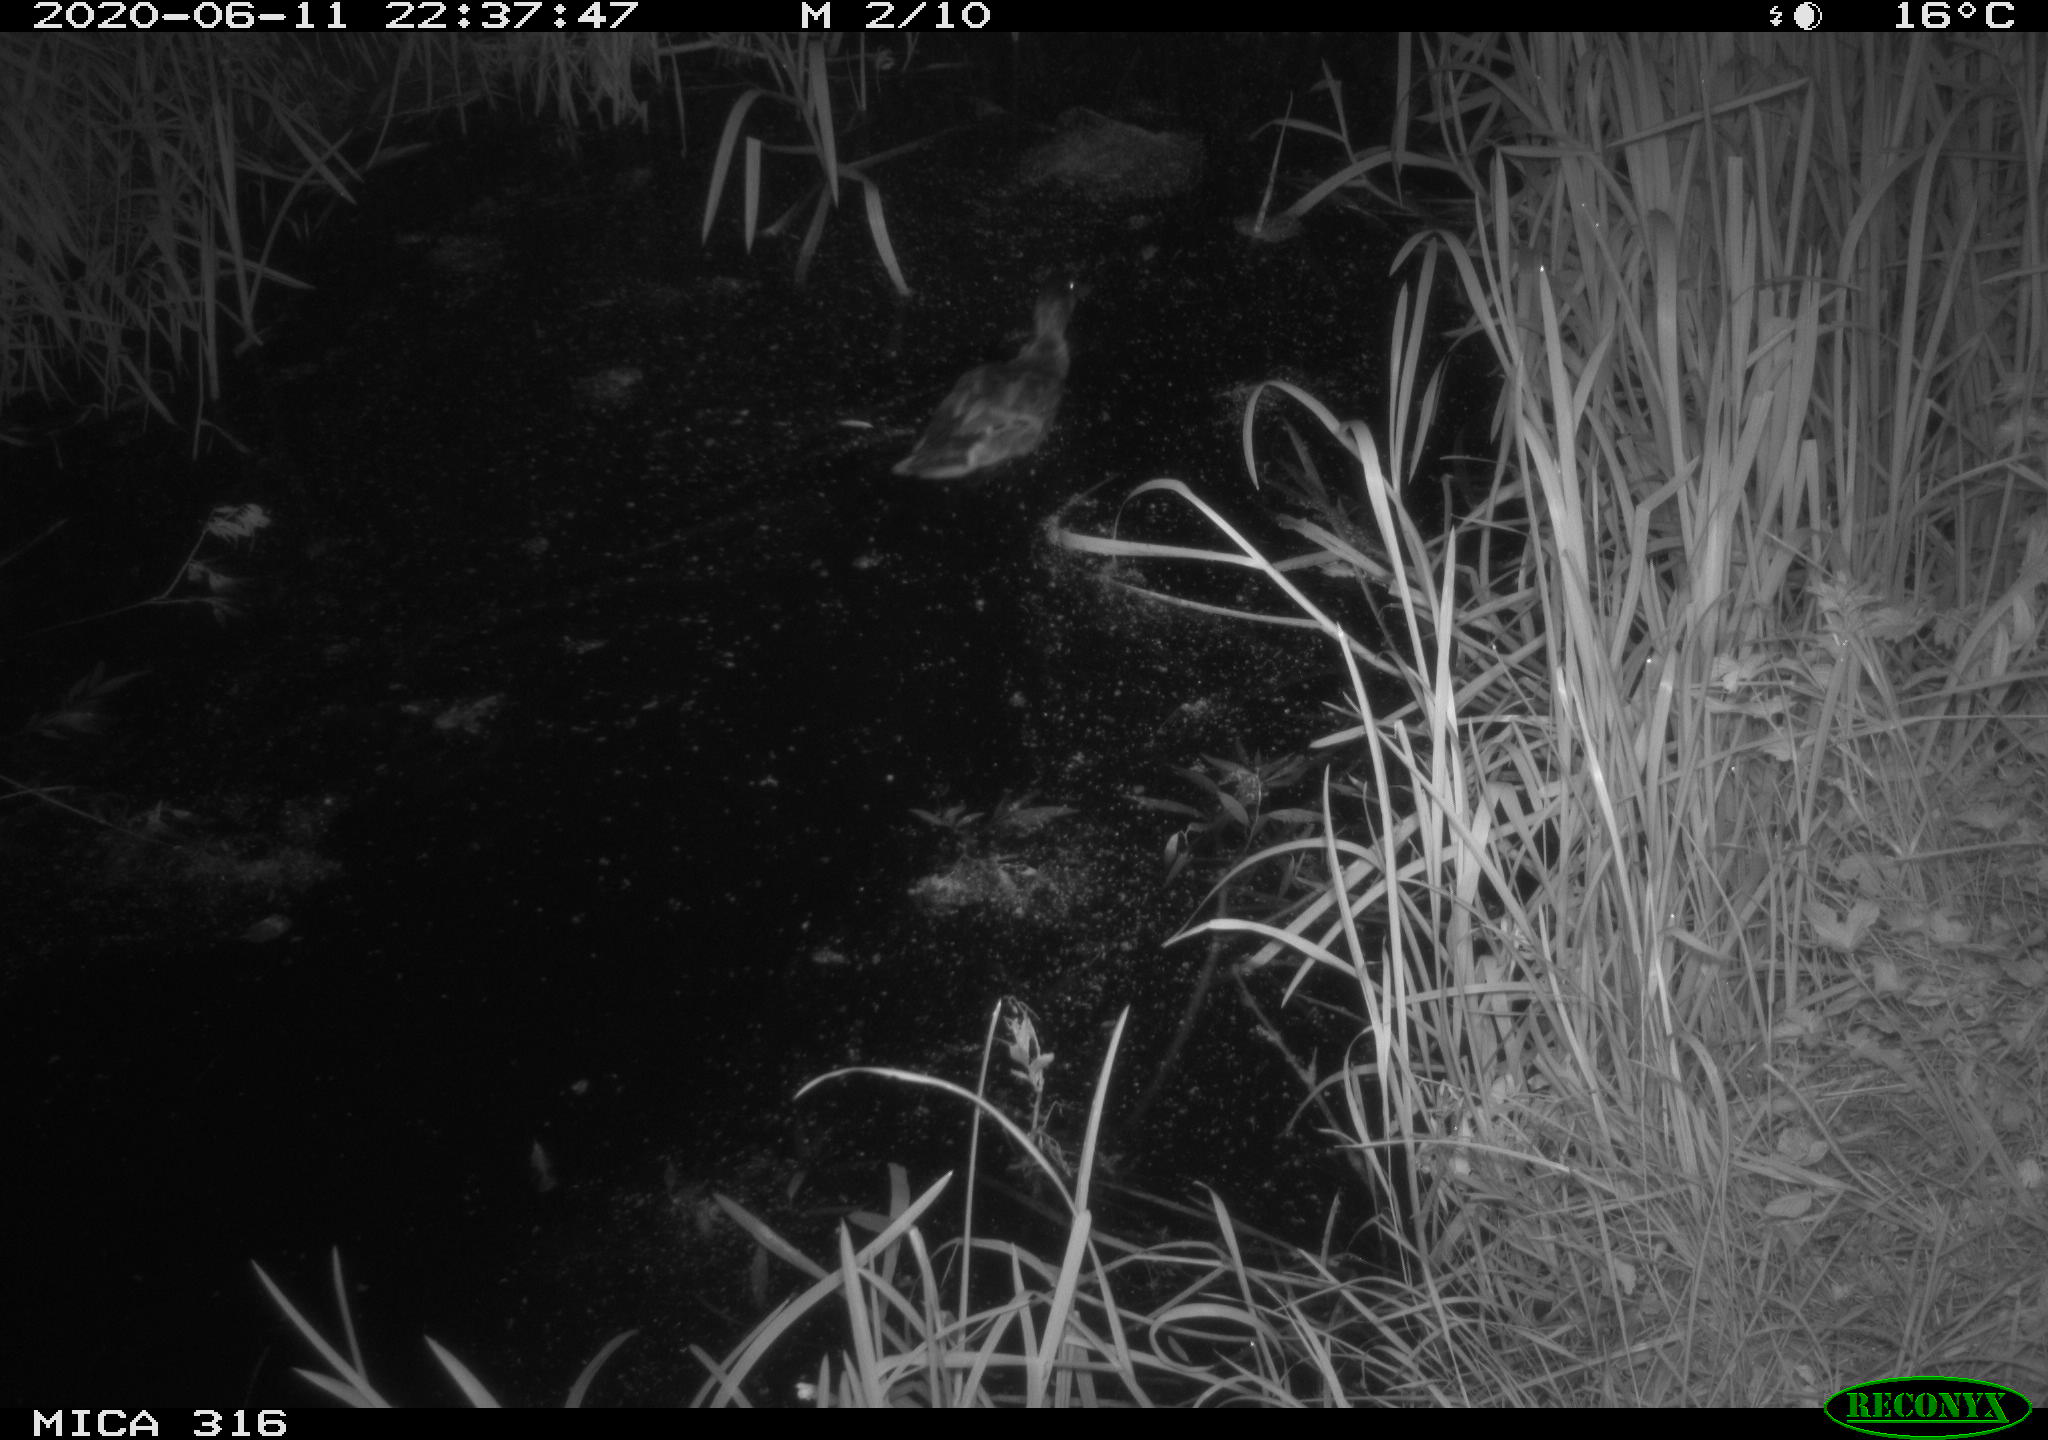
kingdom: Animalia
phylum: Chordata
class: Aves
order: Anseriformes
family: Anatidae
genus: Anas
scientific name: Anas platyrhynchos
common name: Mallard
